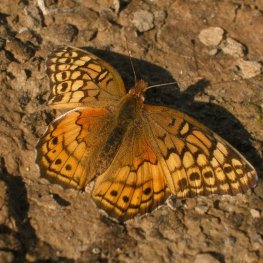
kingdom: Animalia
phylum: Arthropoda
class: Insecta
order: Lepidoptera
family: Nymphalidae
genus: Euptoieta
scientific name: Euptoieta claudia
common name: Variegated Fritillary
